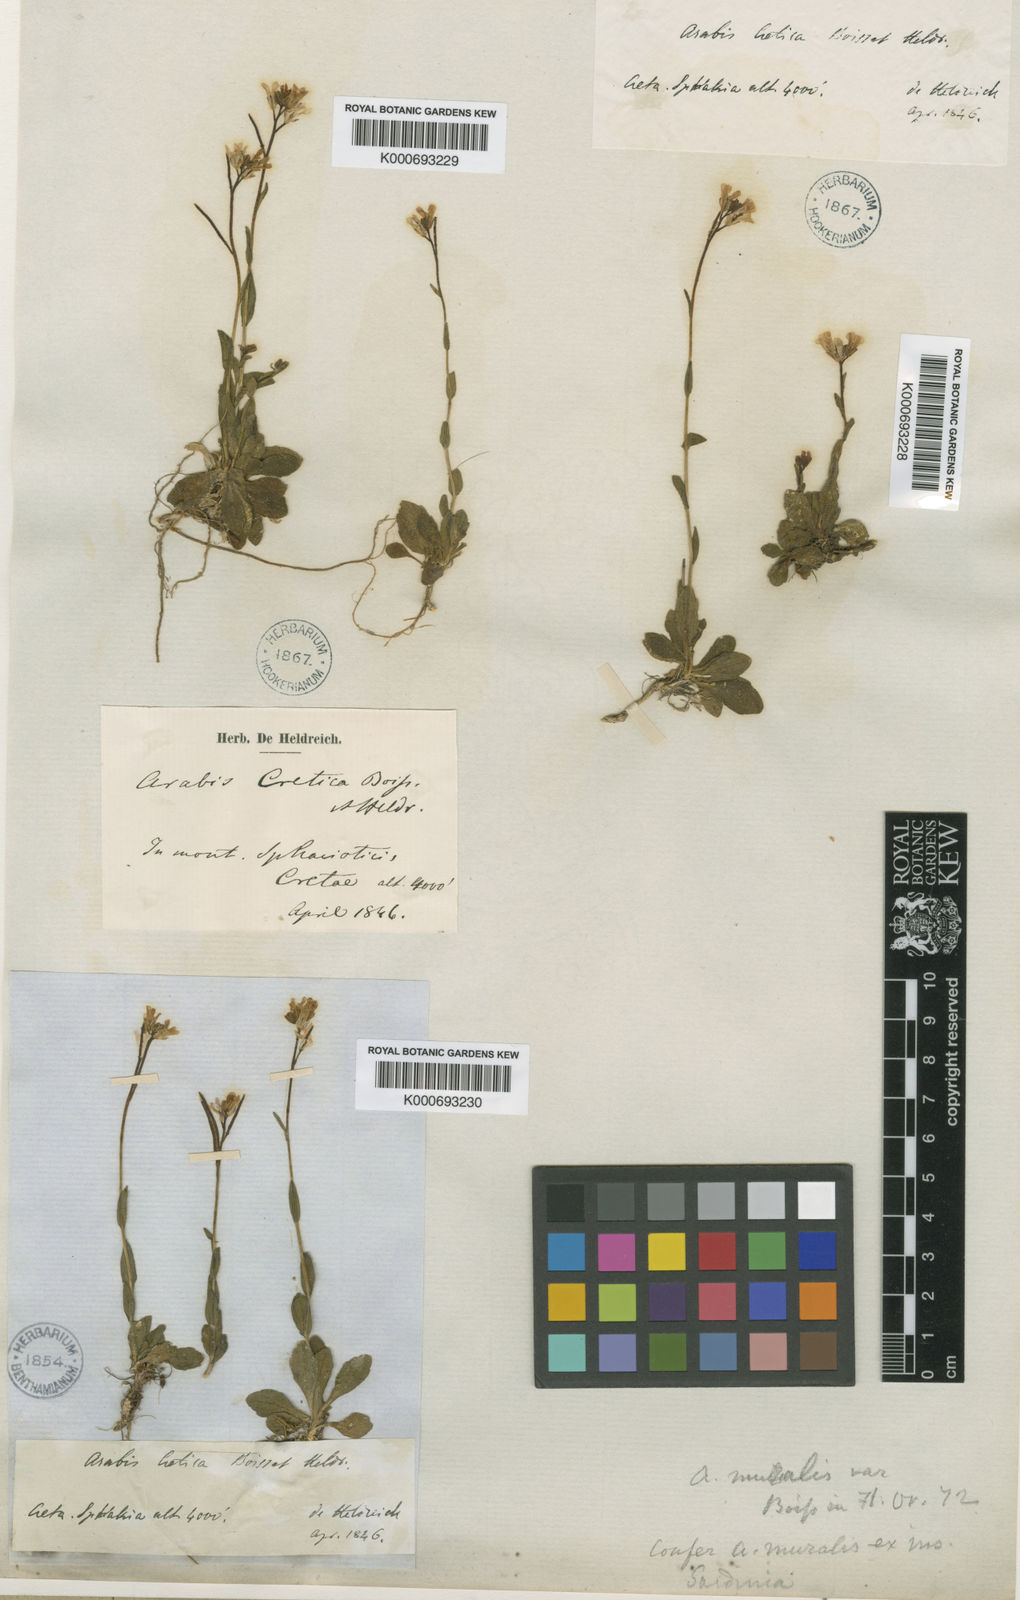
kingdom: Plantae
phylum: Tracheophyta
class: Magnoliopsida
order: Brassicales
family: Brassicaceae
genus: Arabis
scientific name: Arabis cretica
